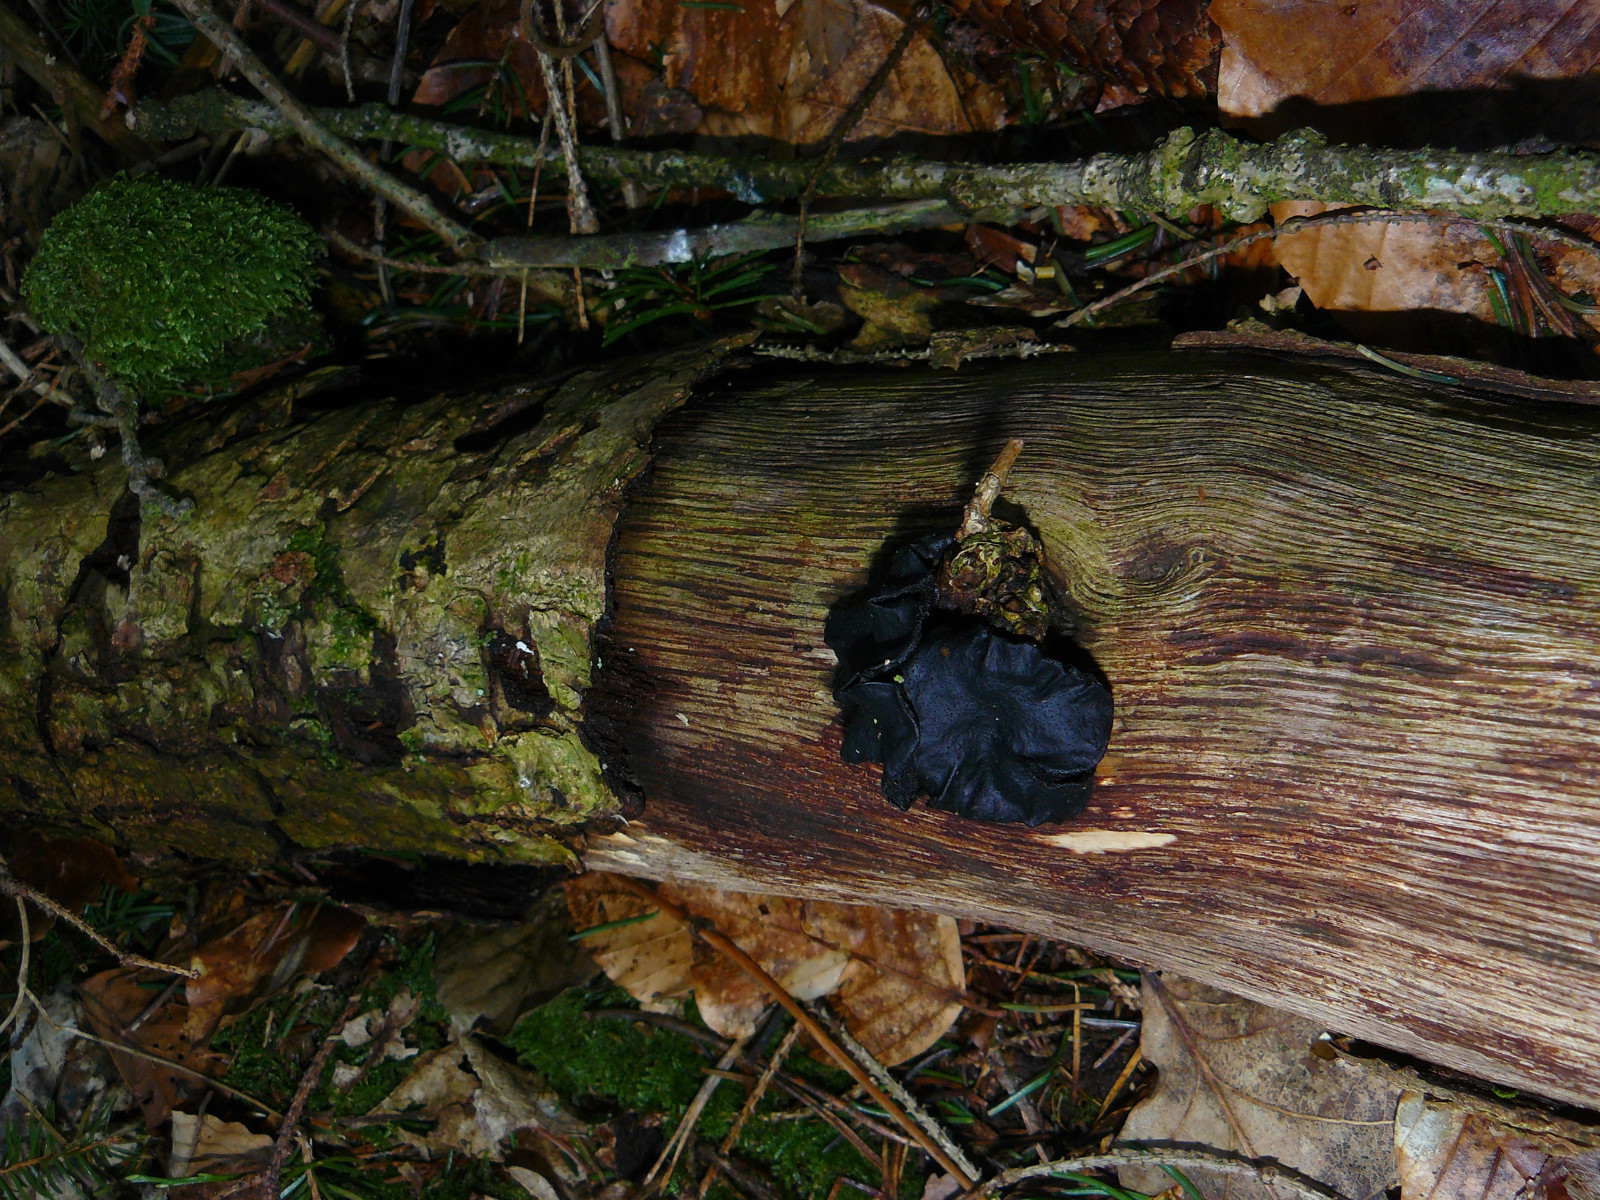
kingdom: Fungi
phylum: Basidiomycota
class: Agaricomycetes
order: Auriculariales
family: Auriculariaceae
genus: Exidia
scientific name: Exidia glandulosa
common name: ege-bævretop
